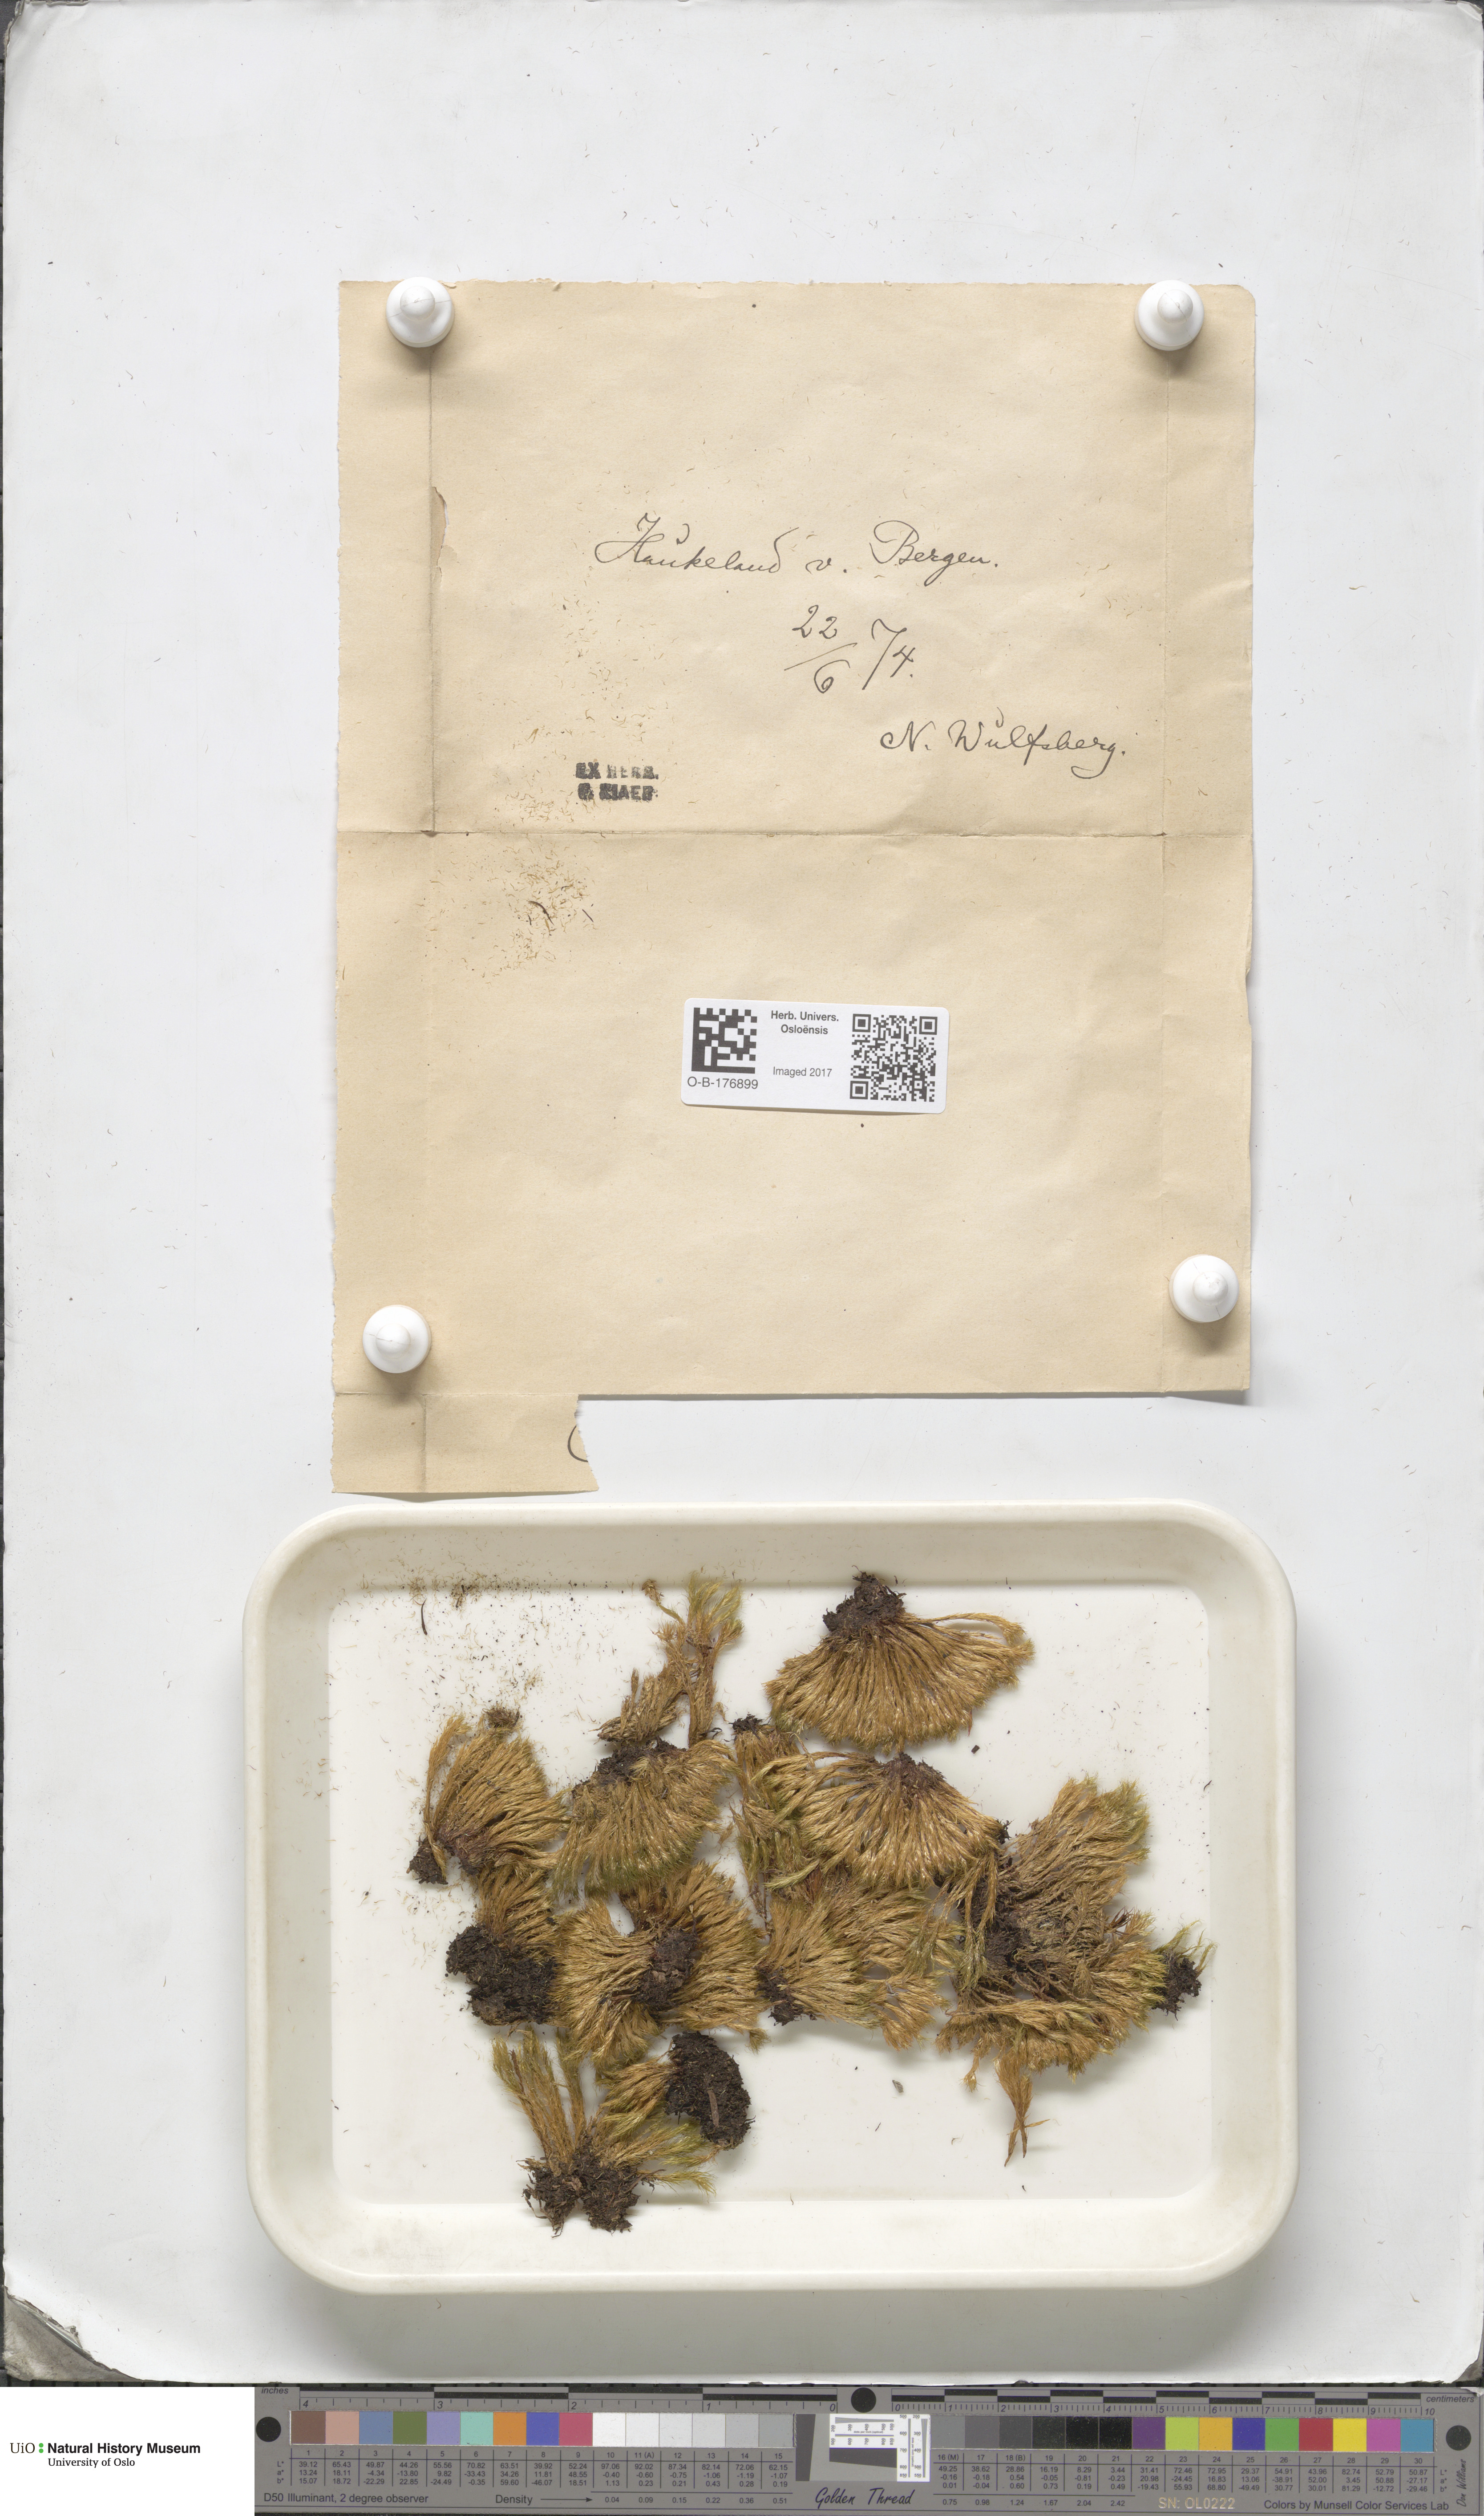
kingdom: Plantae
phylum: Bryophyta
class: Bryopsida
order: Dicranales
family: Leucobryaceae
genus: Campylopus
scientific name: Campylopus fragilis
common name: Brittle swan-neck moss
